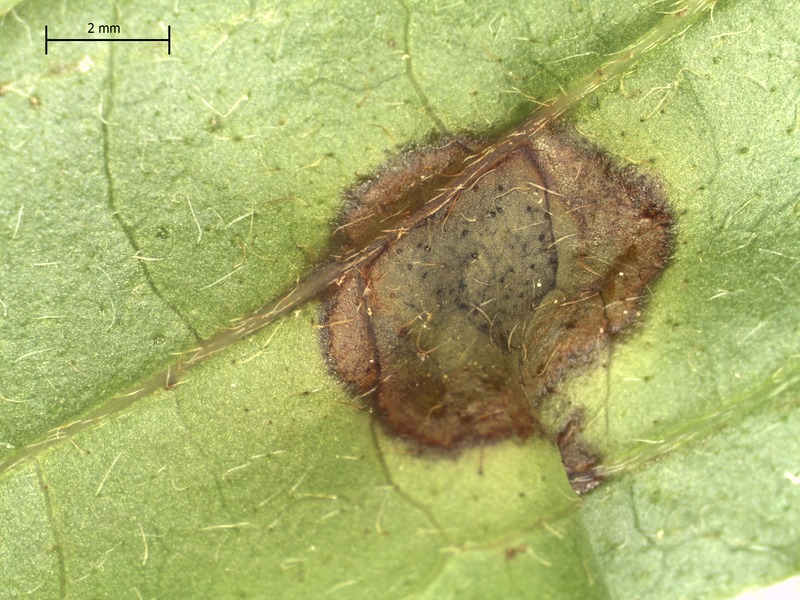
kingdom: Fungi
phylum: Ascomycota
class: Dothideomycetes
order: Capnodiales
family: Mycosphaerellaceae
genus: Septoria
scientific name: Septoria cornicola
